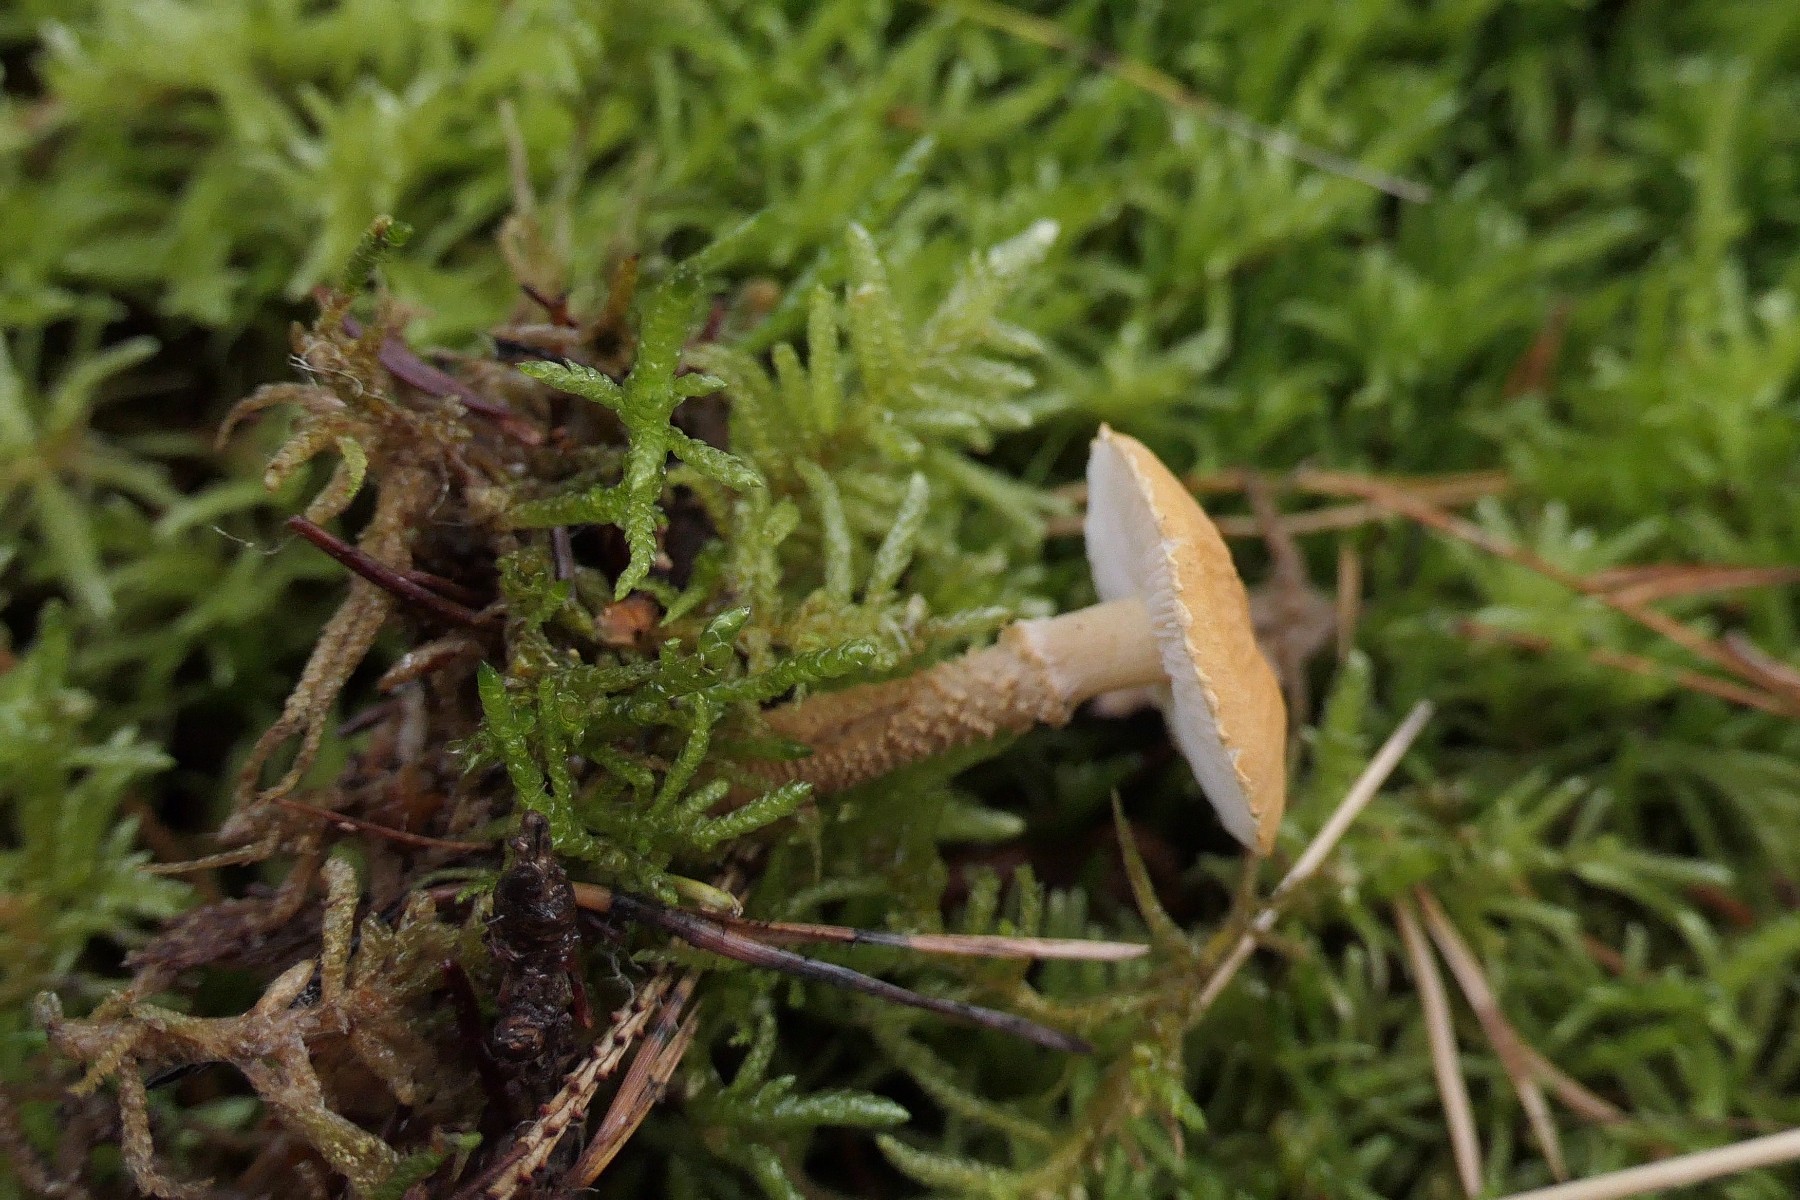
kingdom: Fungi
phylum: Basidiomycota
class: Agaricomycetes
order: Agaricales
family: Tricholomataceae
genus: Cystoderma
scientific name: Cystoderma amianthinum
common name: okkergul grynhat
